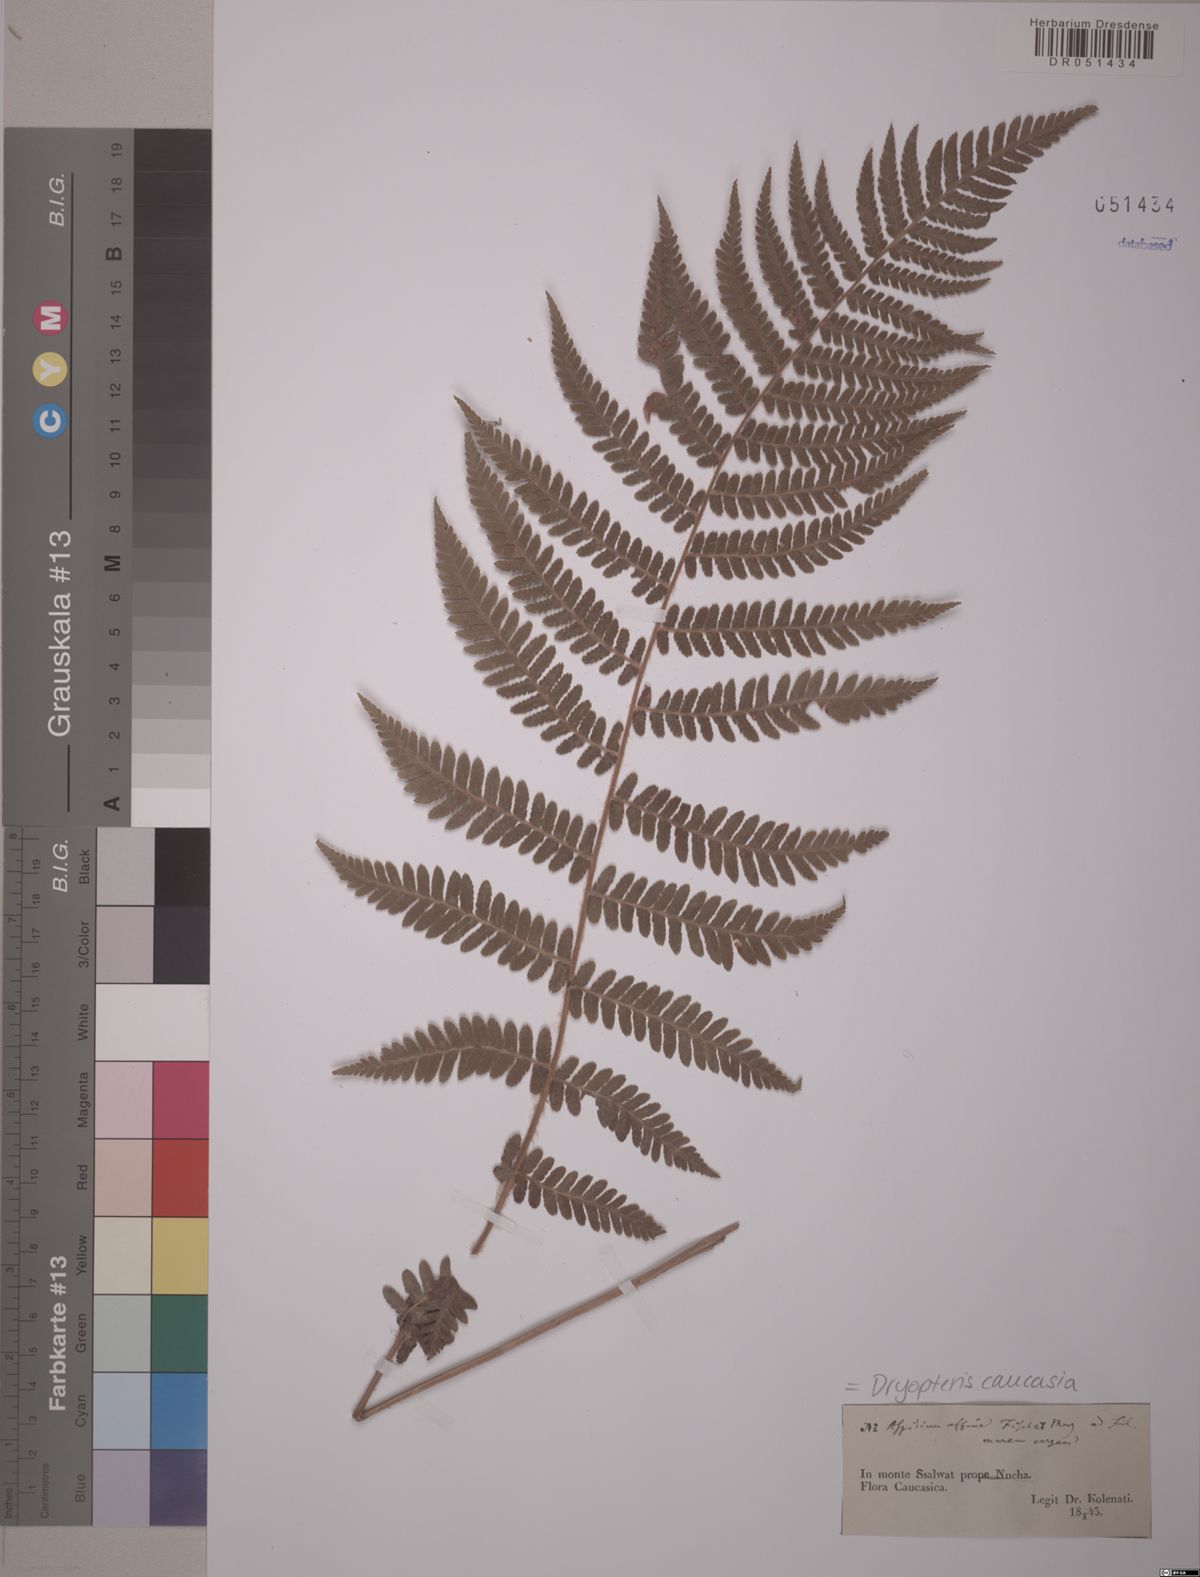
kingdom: Plantae
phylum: Tracheophyta
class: Polypodiopsida
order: Polypodiales
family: Dryopteridaceae
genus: Dryopteris
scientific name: Dryopteris caucasica
